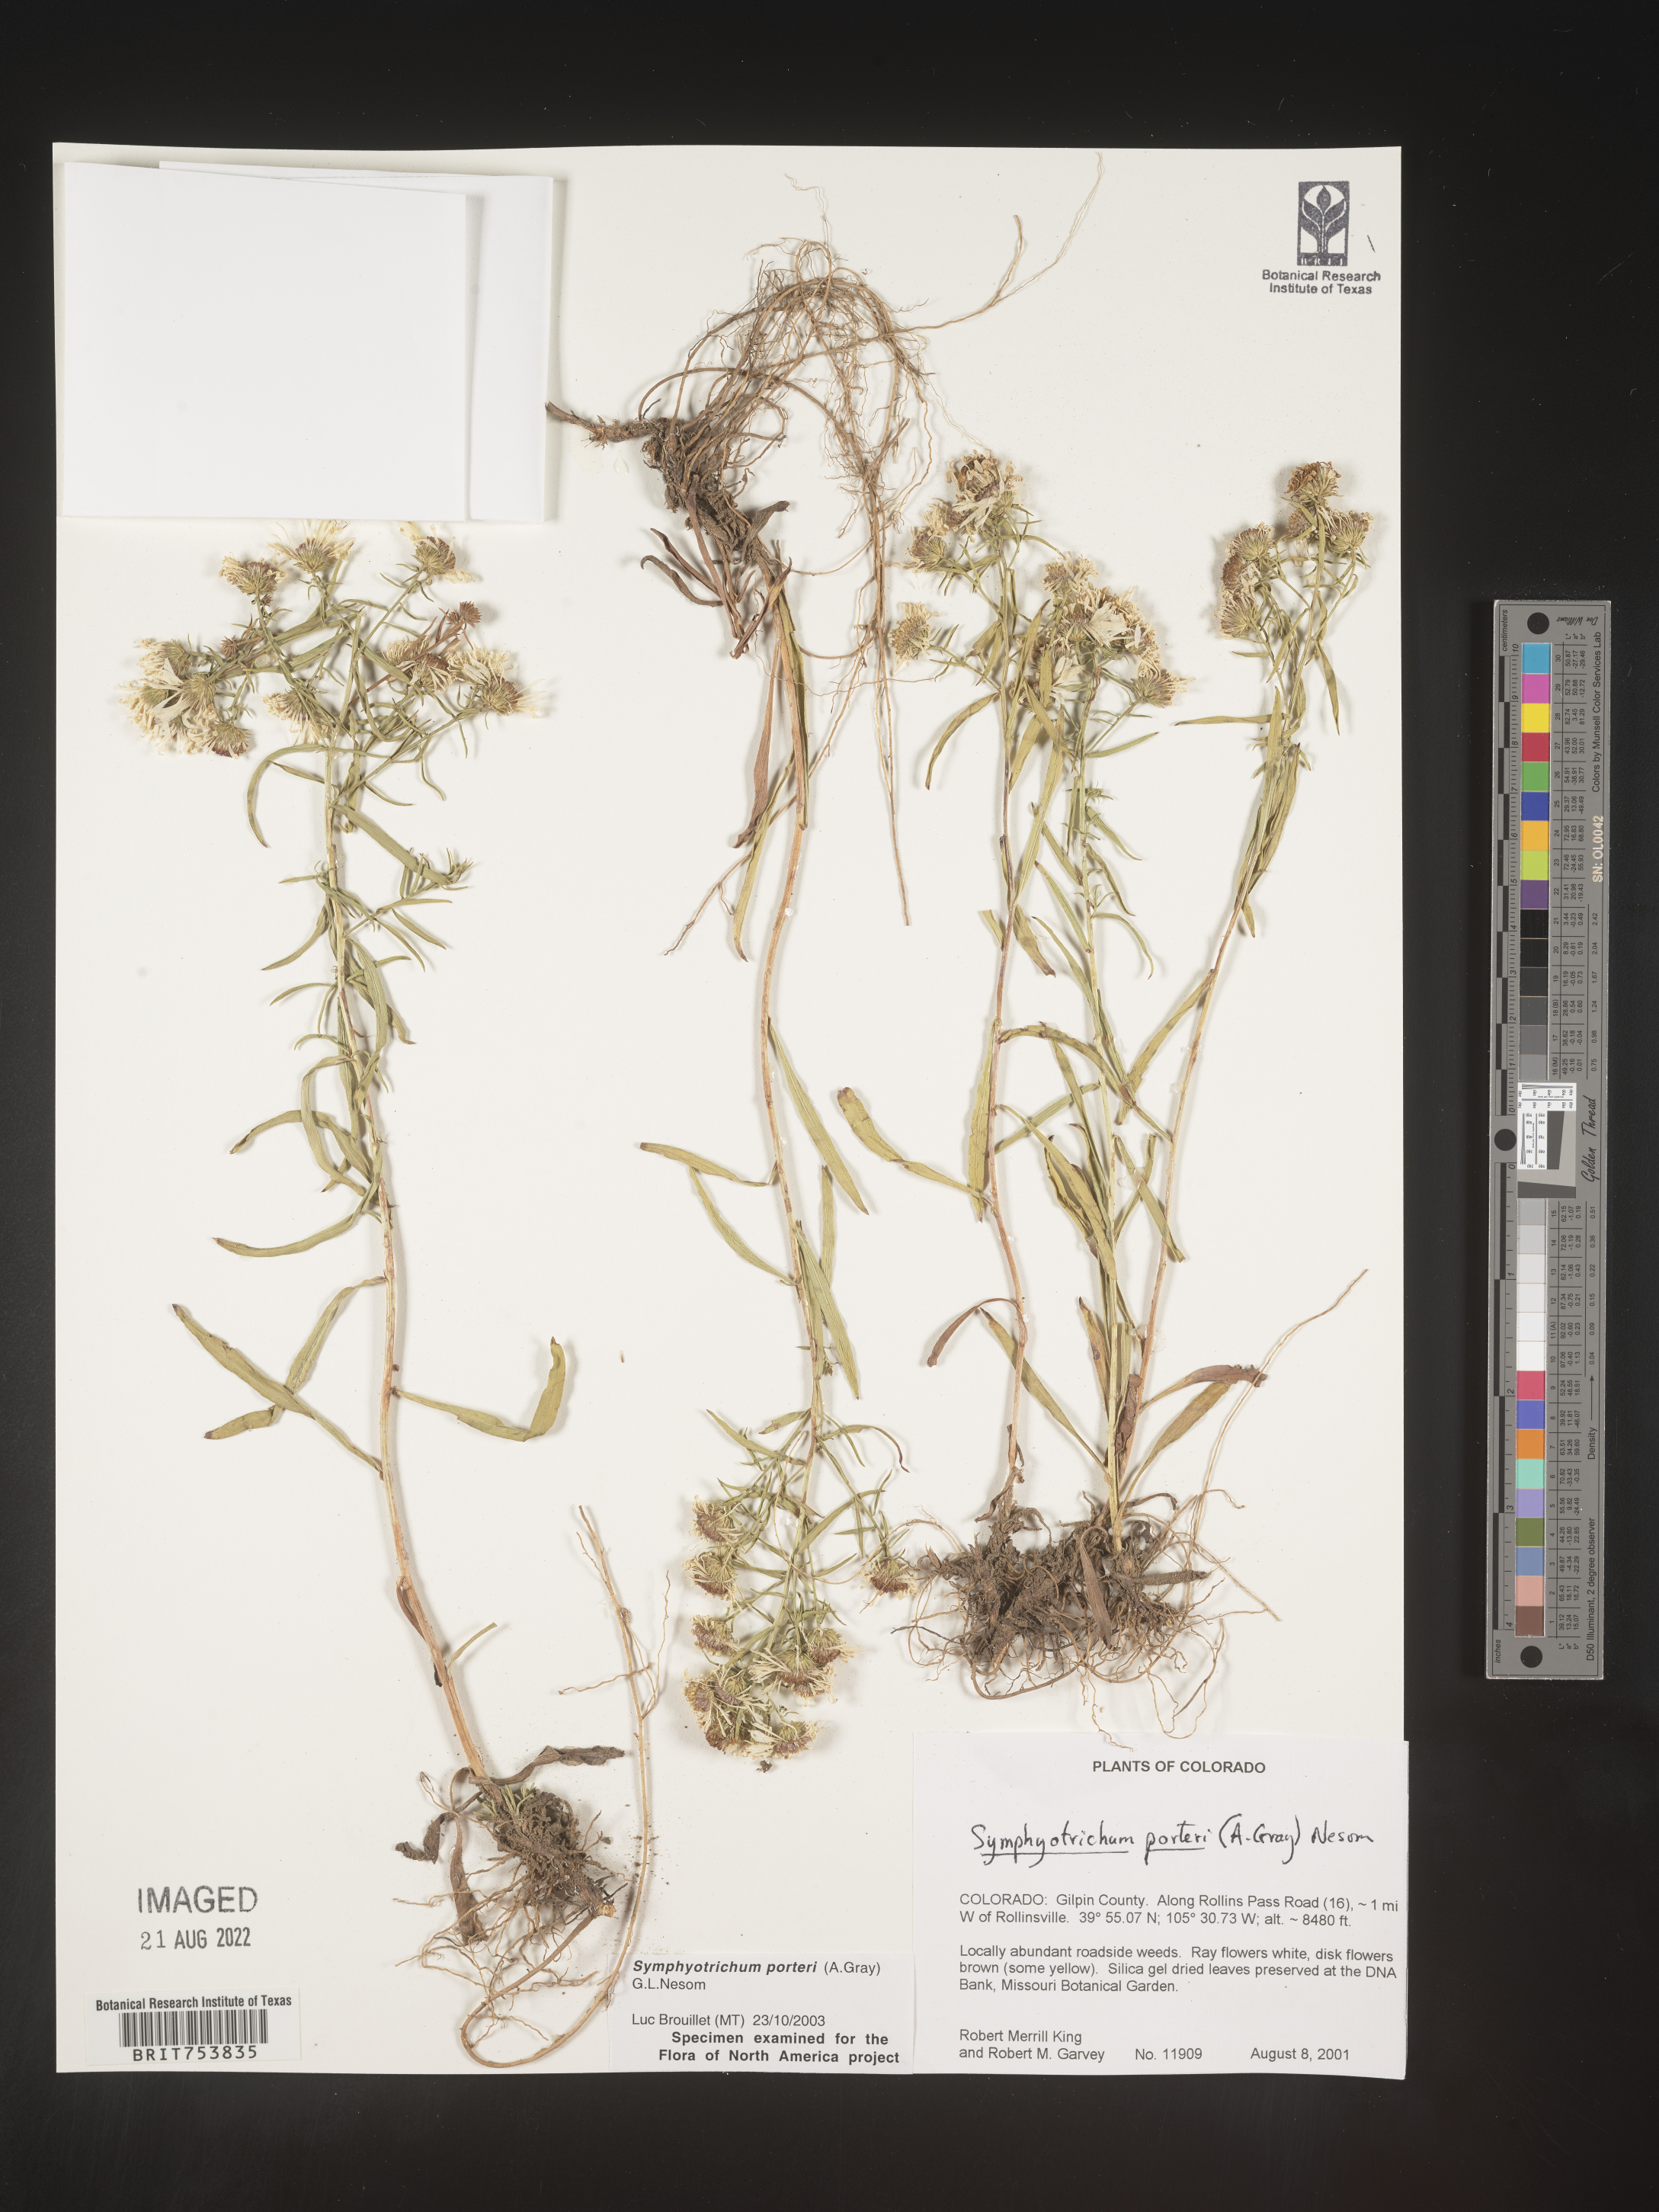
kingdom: Plantae
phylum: Tracheophyta
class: Magnoliopsida
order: Asterales
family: Asteraceae
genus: Symphyotrichum
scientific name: Symphyotrichum porteri
